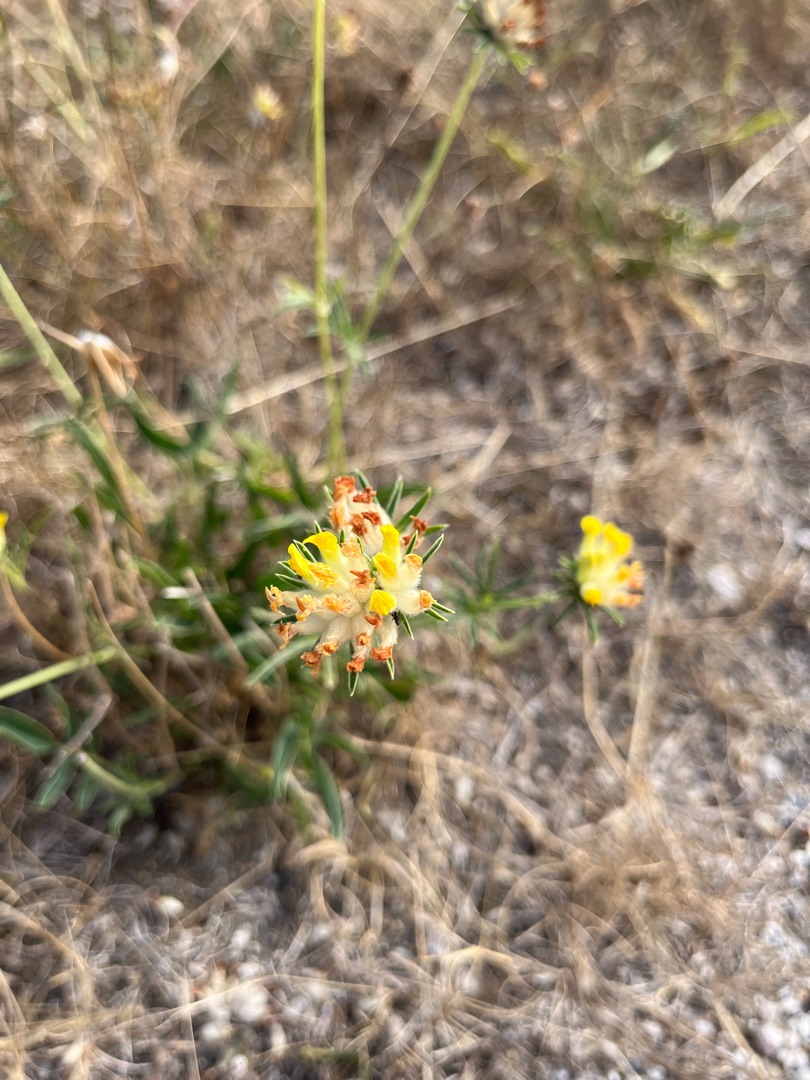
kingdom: Plantae
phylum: Tracheophyta
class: Magnoliopsida
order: Fabales
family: Fabaceae
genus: Anthyllis
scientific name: Anthyllis vulneraria
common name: Rundbælg
